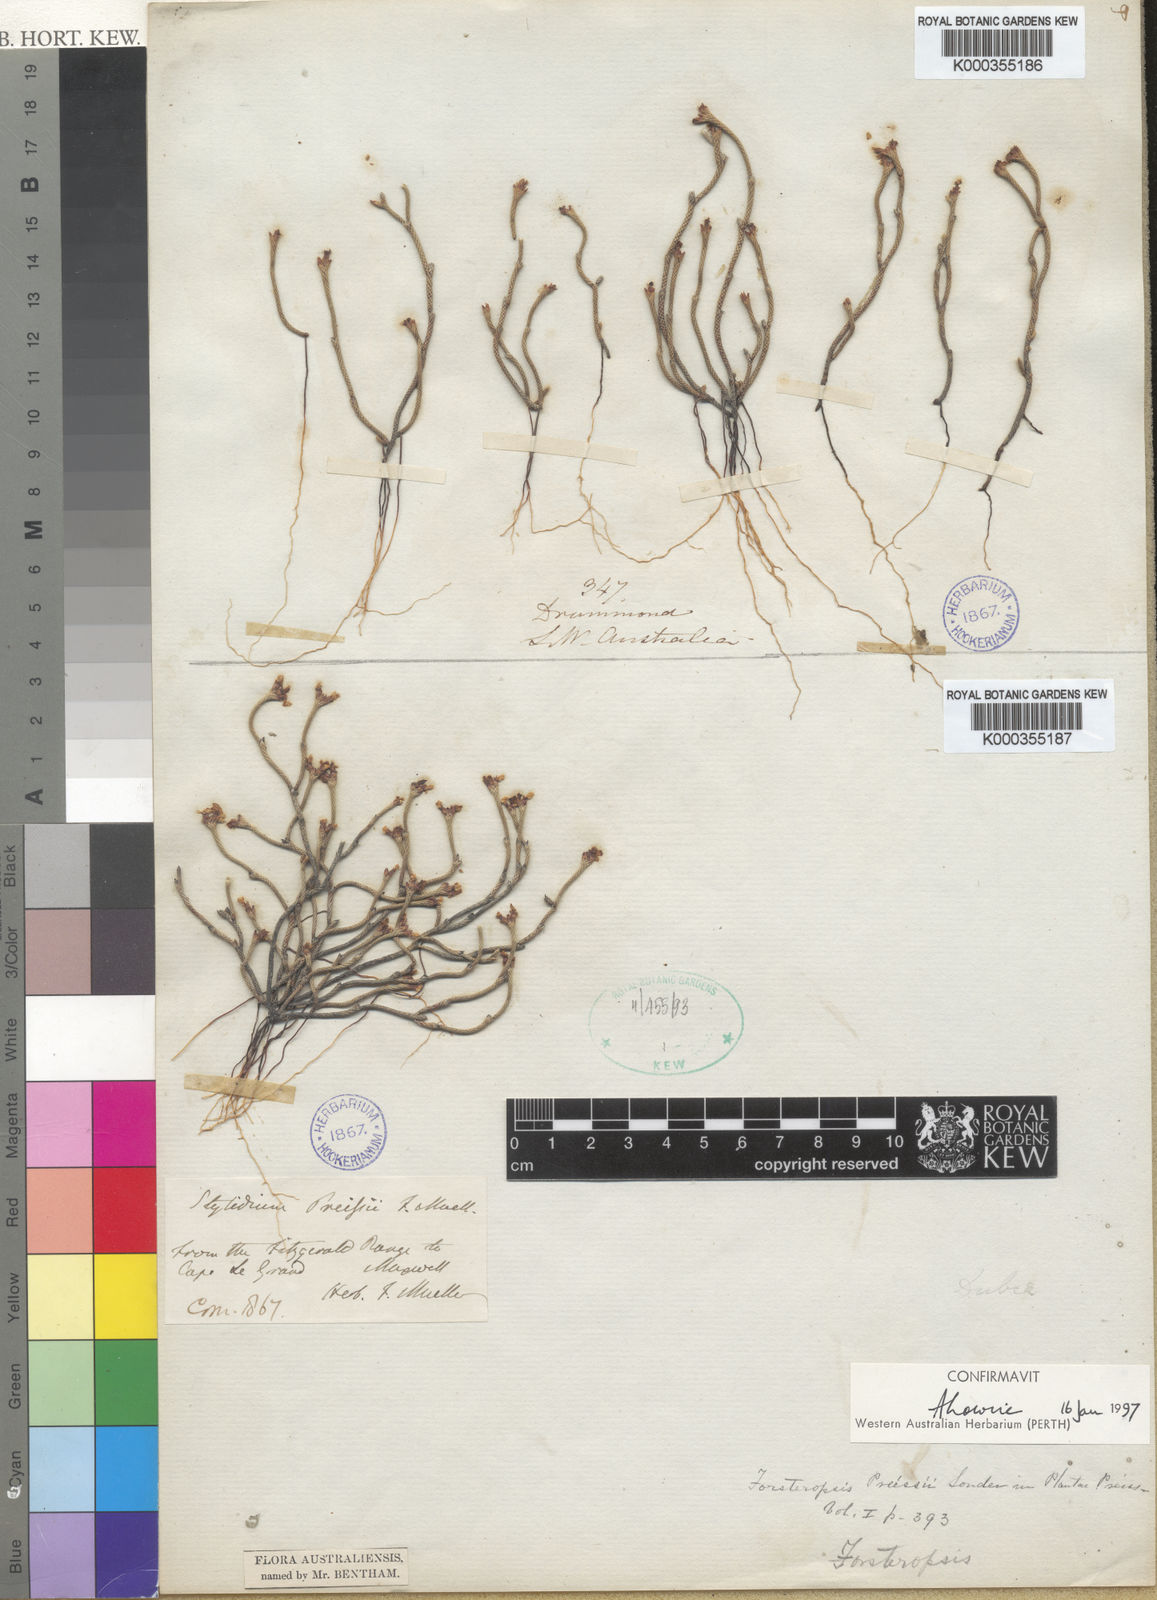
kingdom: Plantae
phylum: Tracheophyta
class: Magnoliopsida
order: Asterales
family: Stylidiaceae
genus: Stylidium
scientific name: Stylidium preissii
